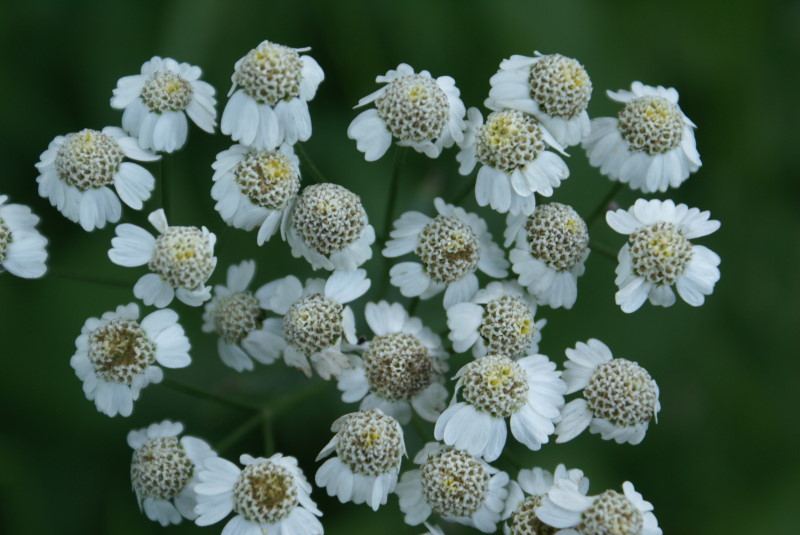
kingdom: Plantae
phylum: Tracheophyta
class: Magnoliopsida
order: Asterales
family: Asteraceae
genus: Achillea
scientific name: Achillea salicifolia
